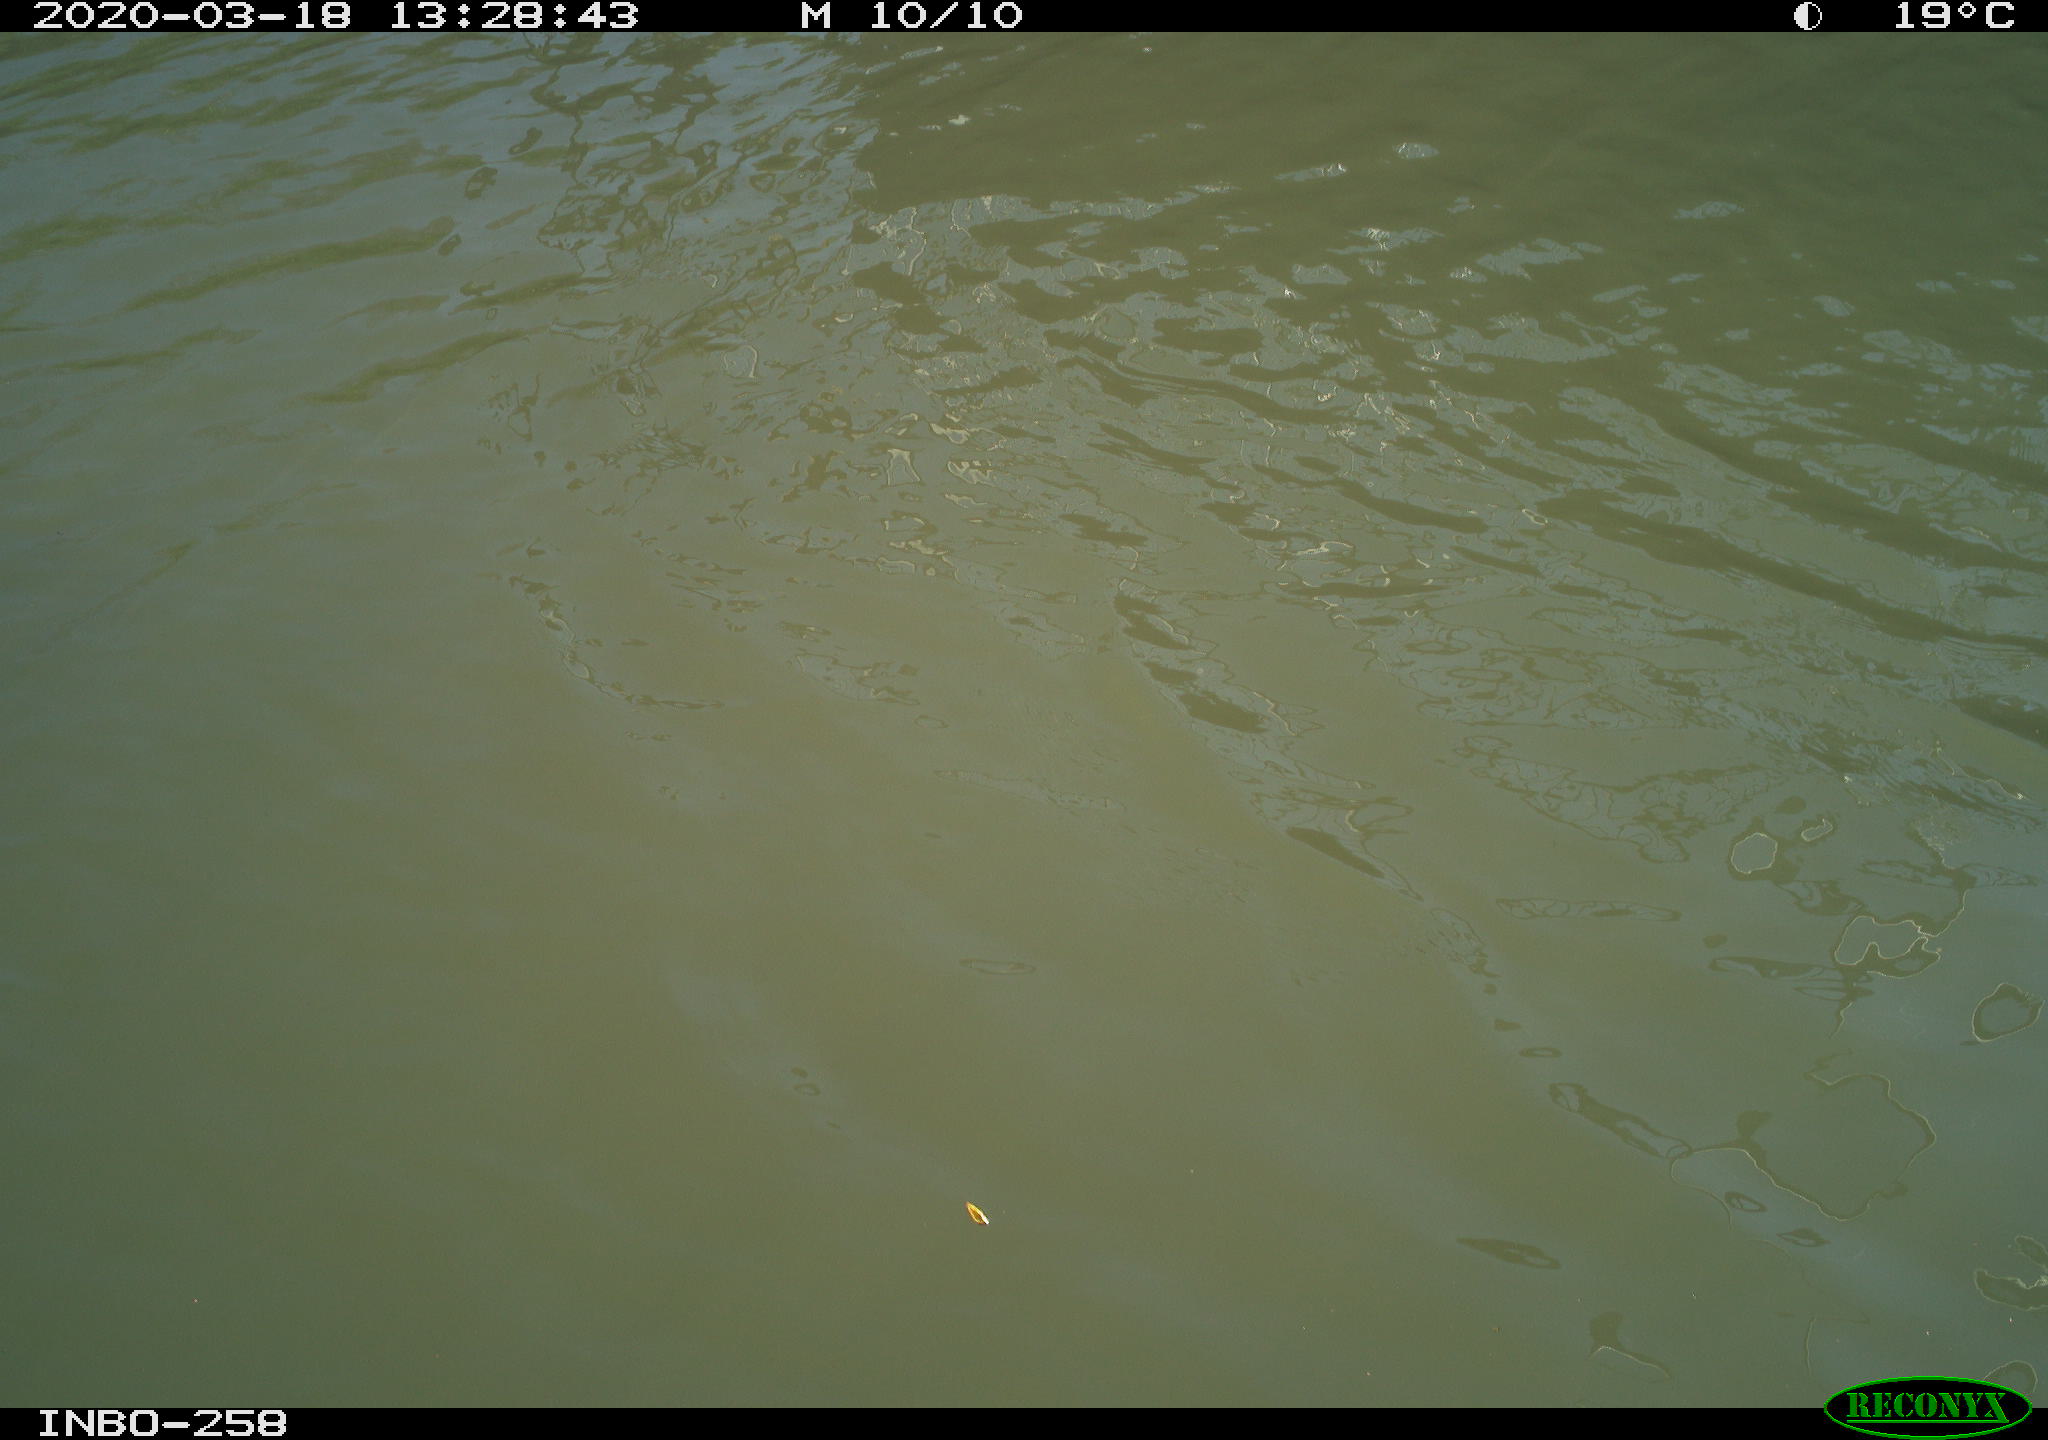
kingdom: Animalia
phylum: Chordata
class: Aves
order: Anseriformes
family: Anatidae
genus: Anas
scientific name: Anas platyrhynchos
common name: Mallard
